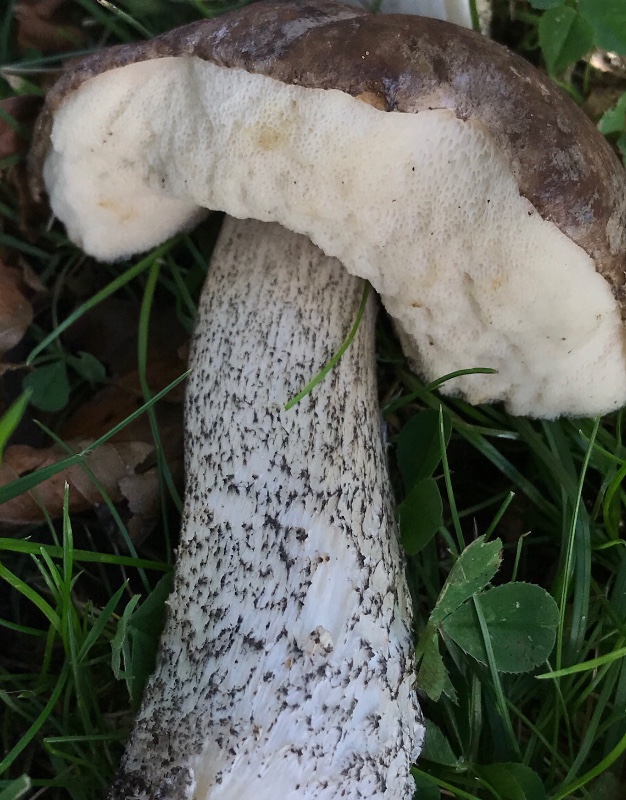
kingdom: Fungi
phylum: Basidiomycota
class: Agaricomycetes
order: Boletales
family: Boletaceae
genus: Leccinum
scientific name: Leccinum scabrum
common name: brun skælrørhat
